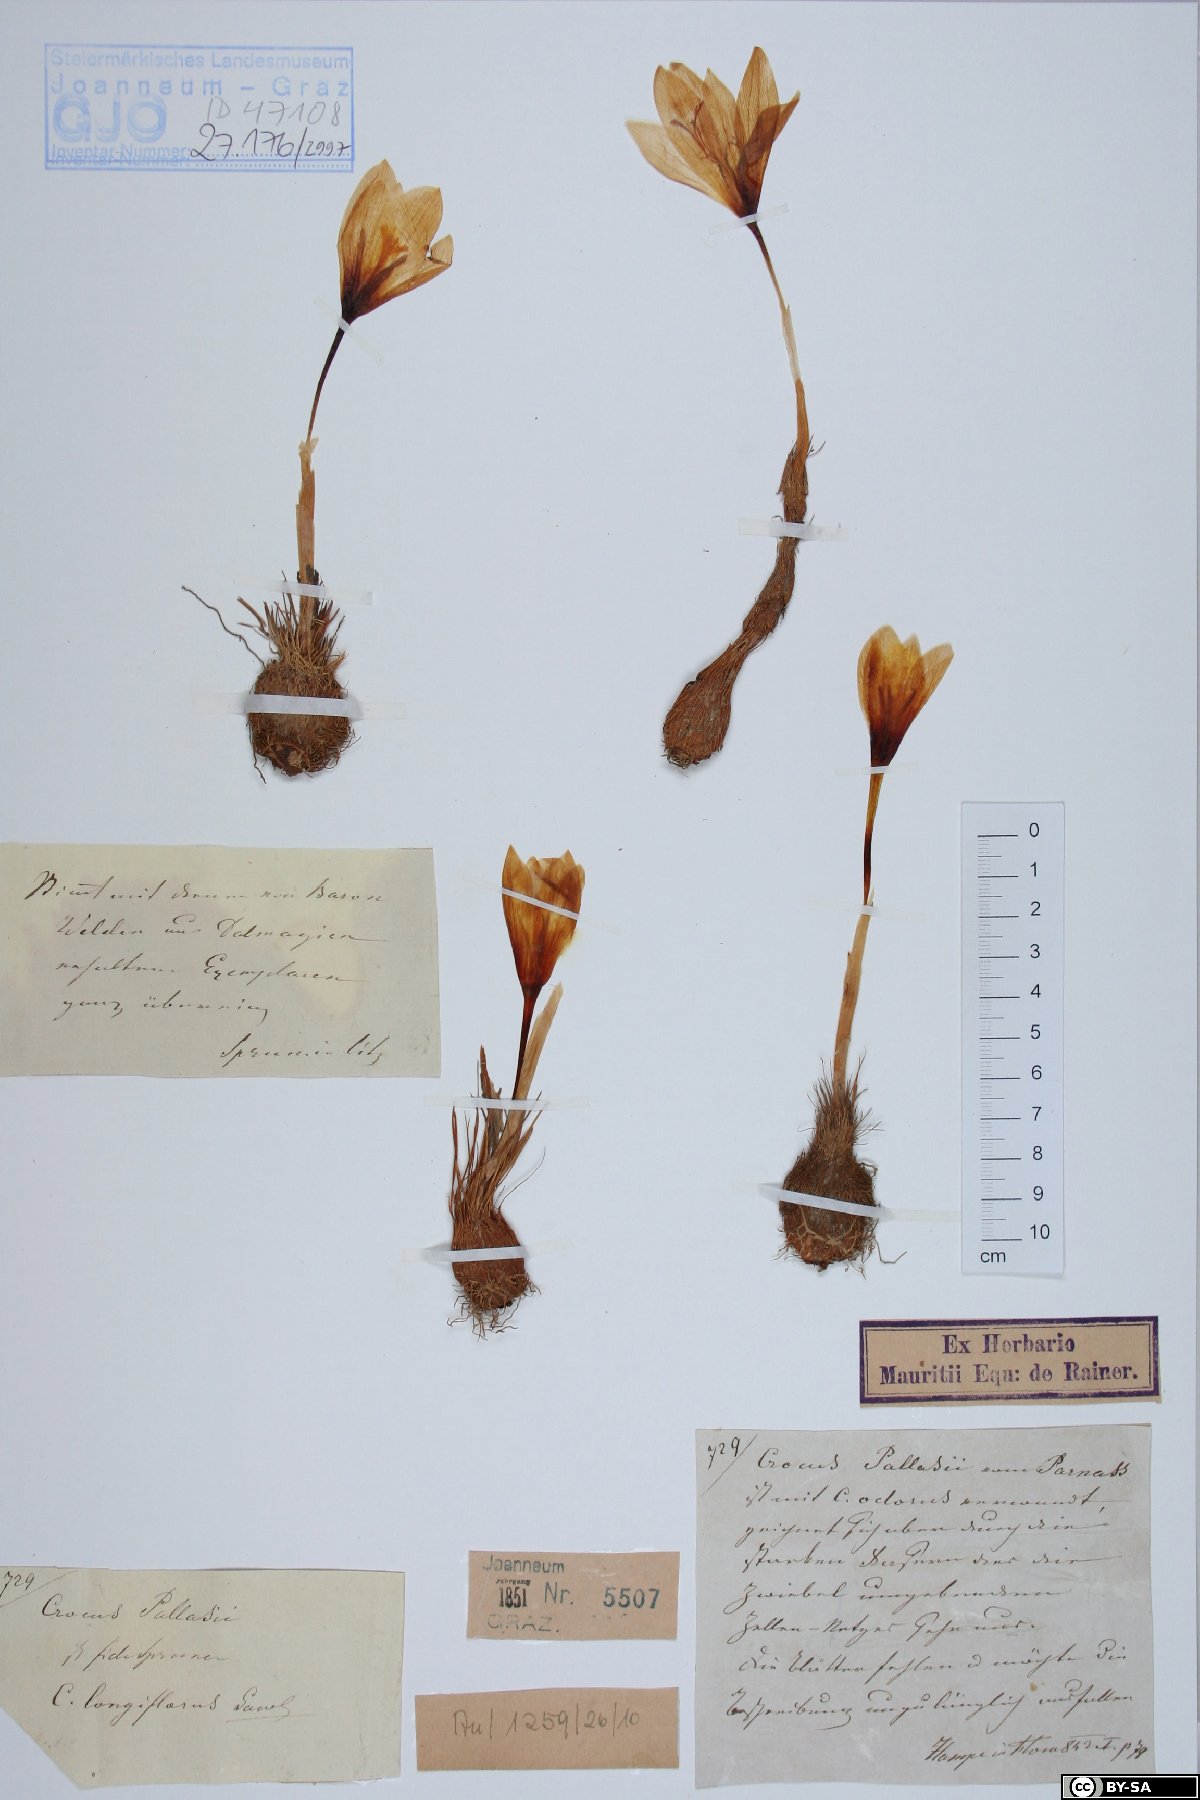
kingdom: Plantae
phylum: Tracheophyta
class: Liliopsida
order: Asparagales
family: Iridaceae
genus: Crocus
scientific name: Crocus longiflorus
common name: Italian crocus
